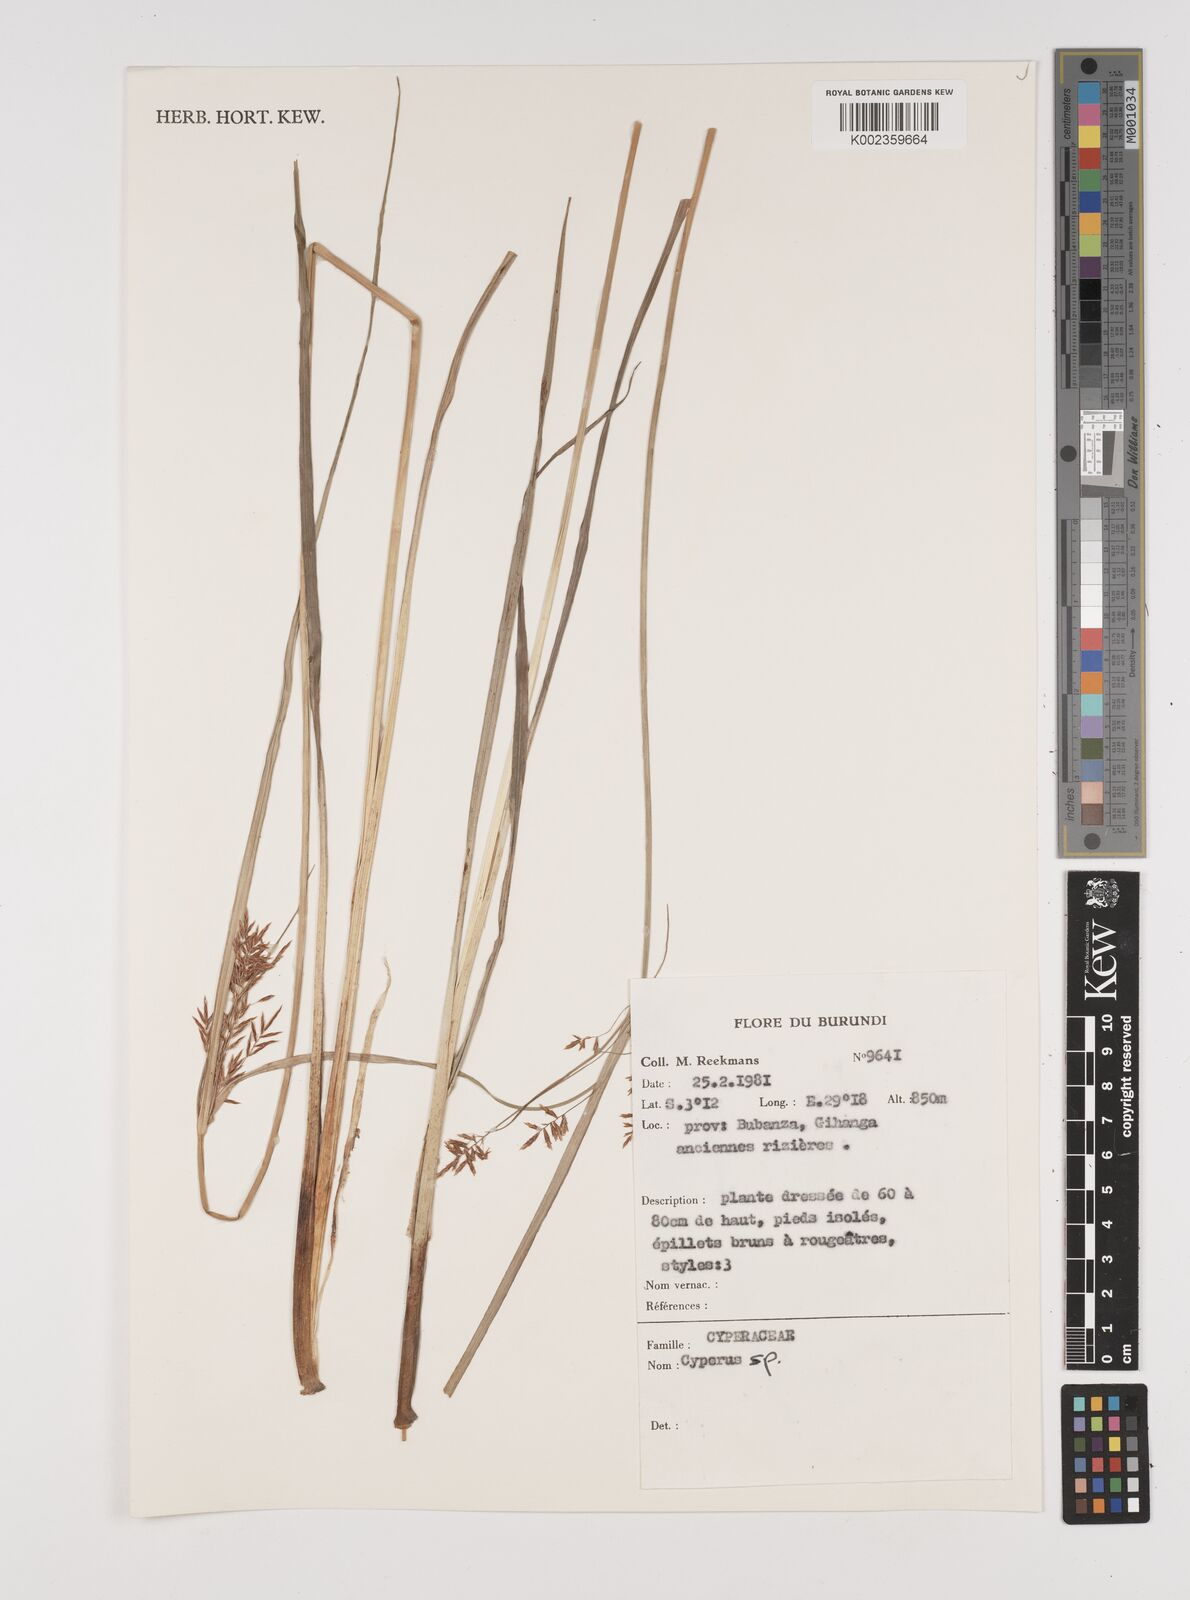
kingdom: Plantae
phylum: Tracheophyta
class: Liliopsida
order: Poales
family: Cyperaceae
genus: Cyperus
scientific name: Cyperus
